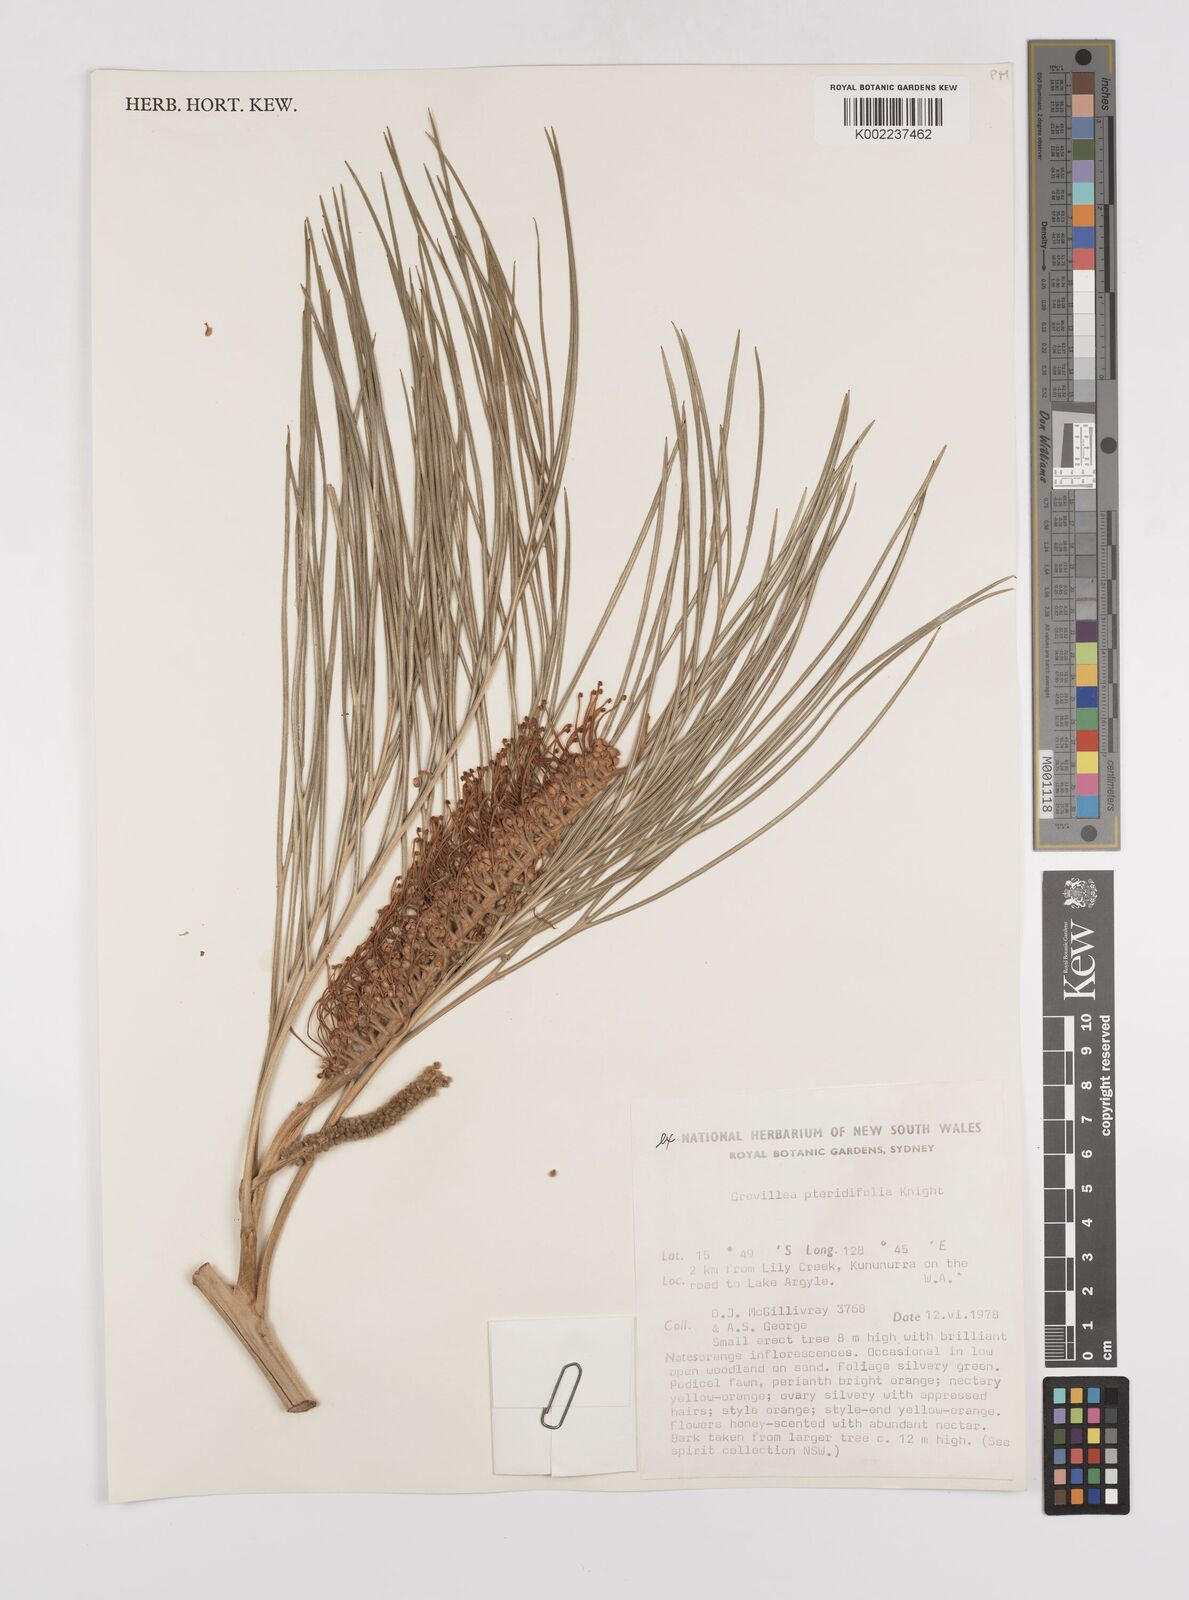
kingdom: Plantae
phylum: Tracheophyta
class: Magnoliopsida
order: Proteales
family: Proteaceae
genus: Grevillea
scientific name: Grevillea pteridifolia
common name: Golden grevillea
